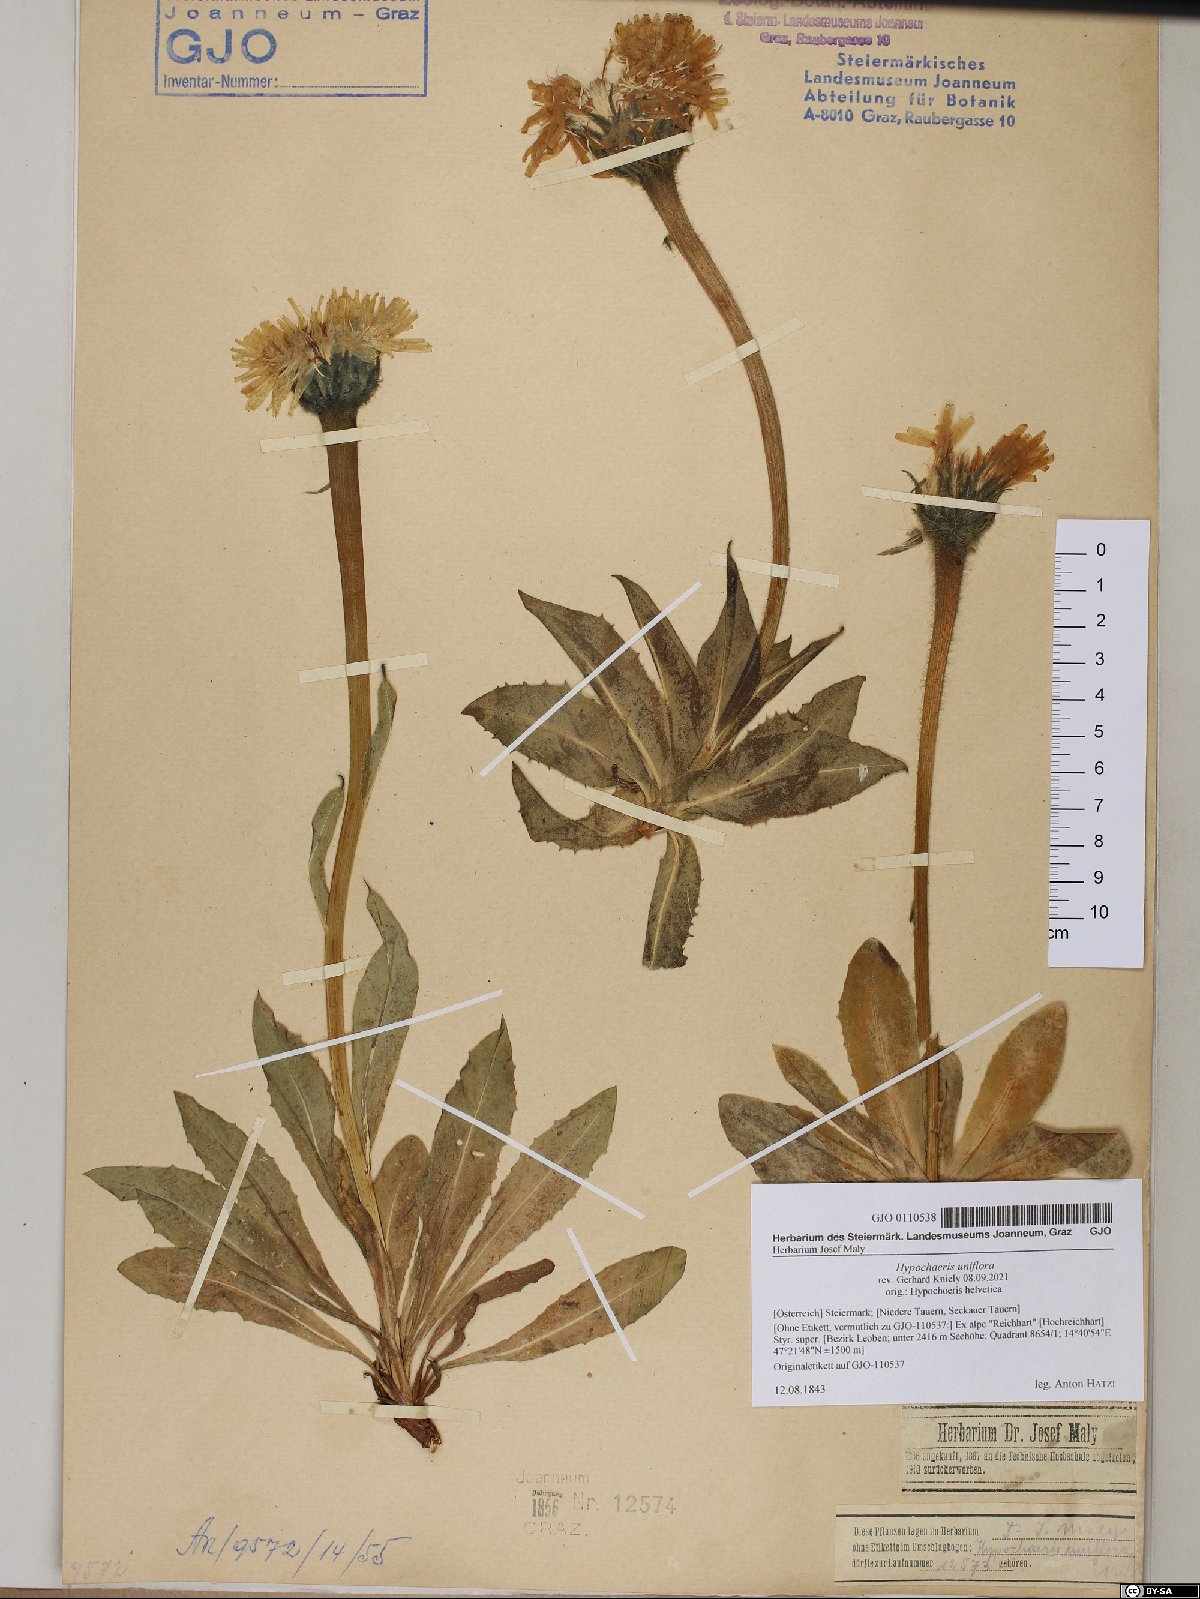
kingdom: Plantae
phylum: Tracheophyta
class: Magnoliopsida
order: Asterales
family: Asteraceae
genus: Trommsdorffia
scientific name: Trommsdorffia uniflora
